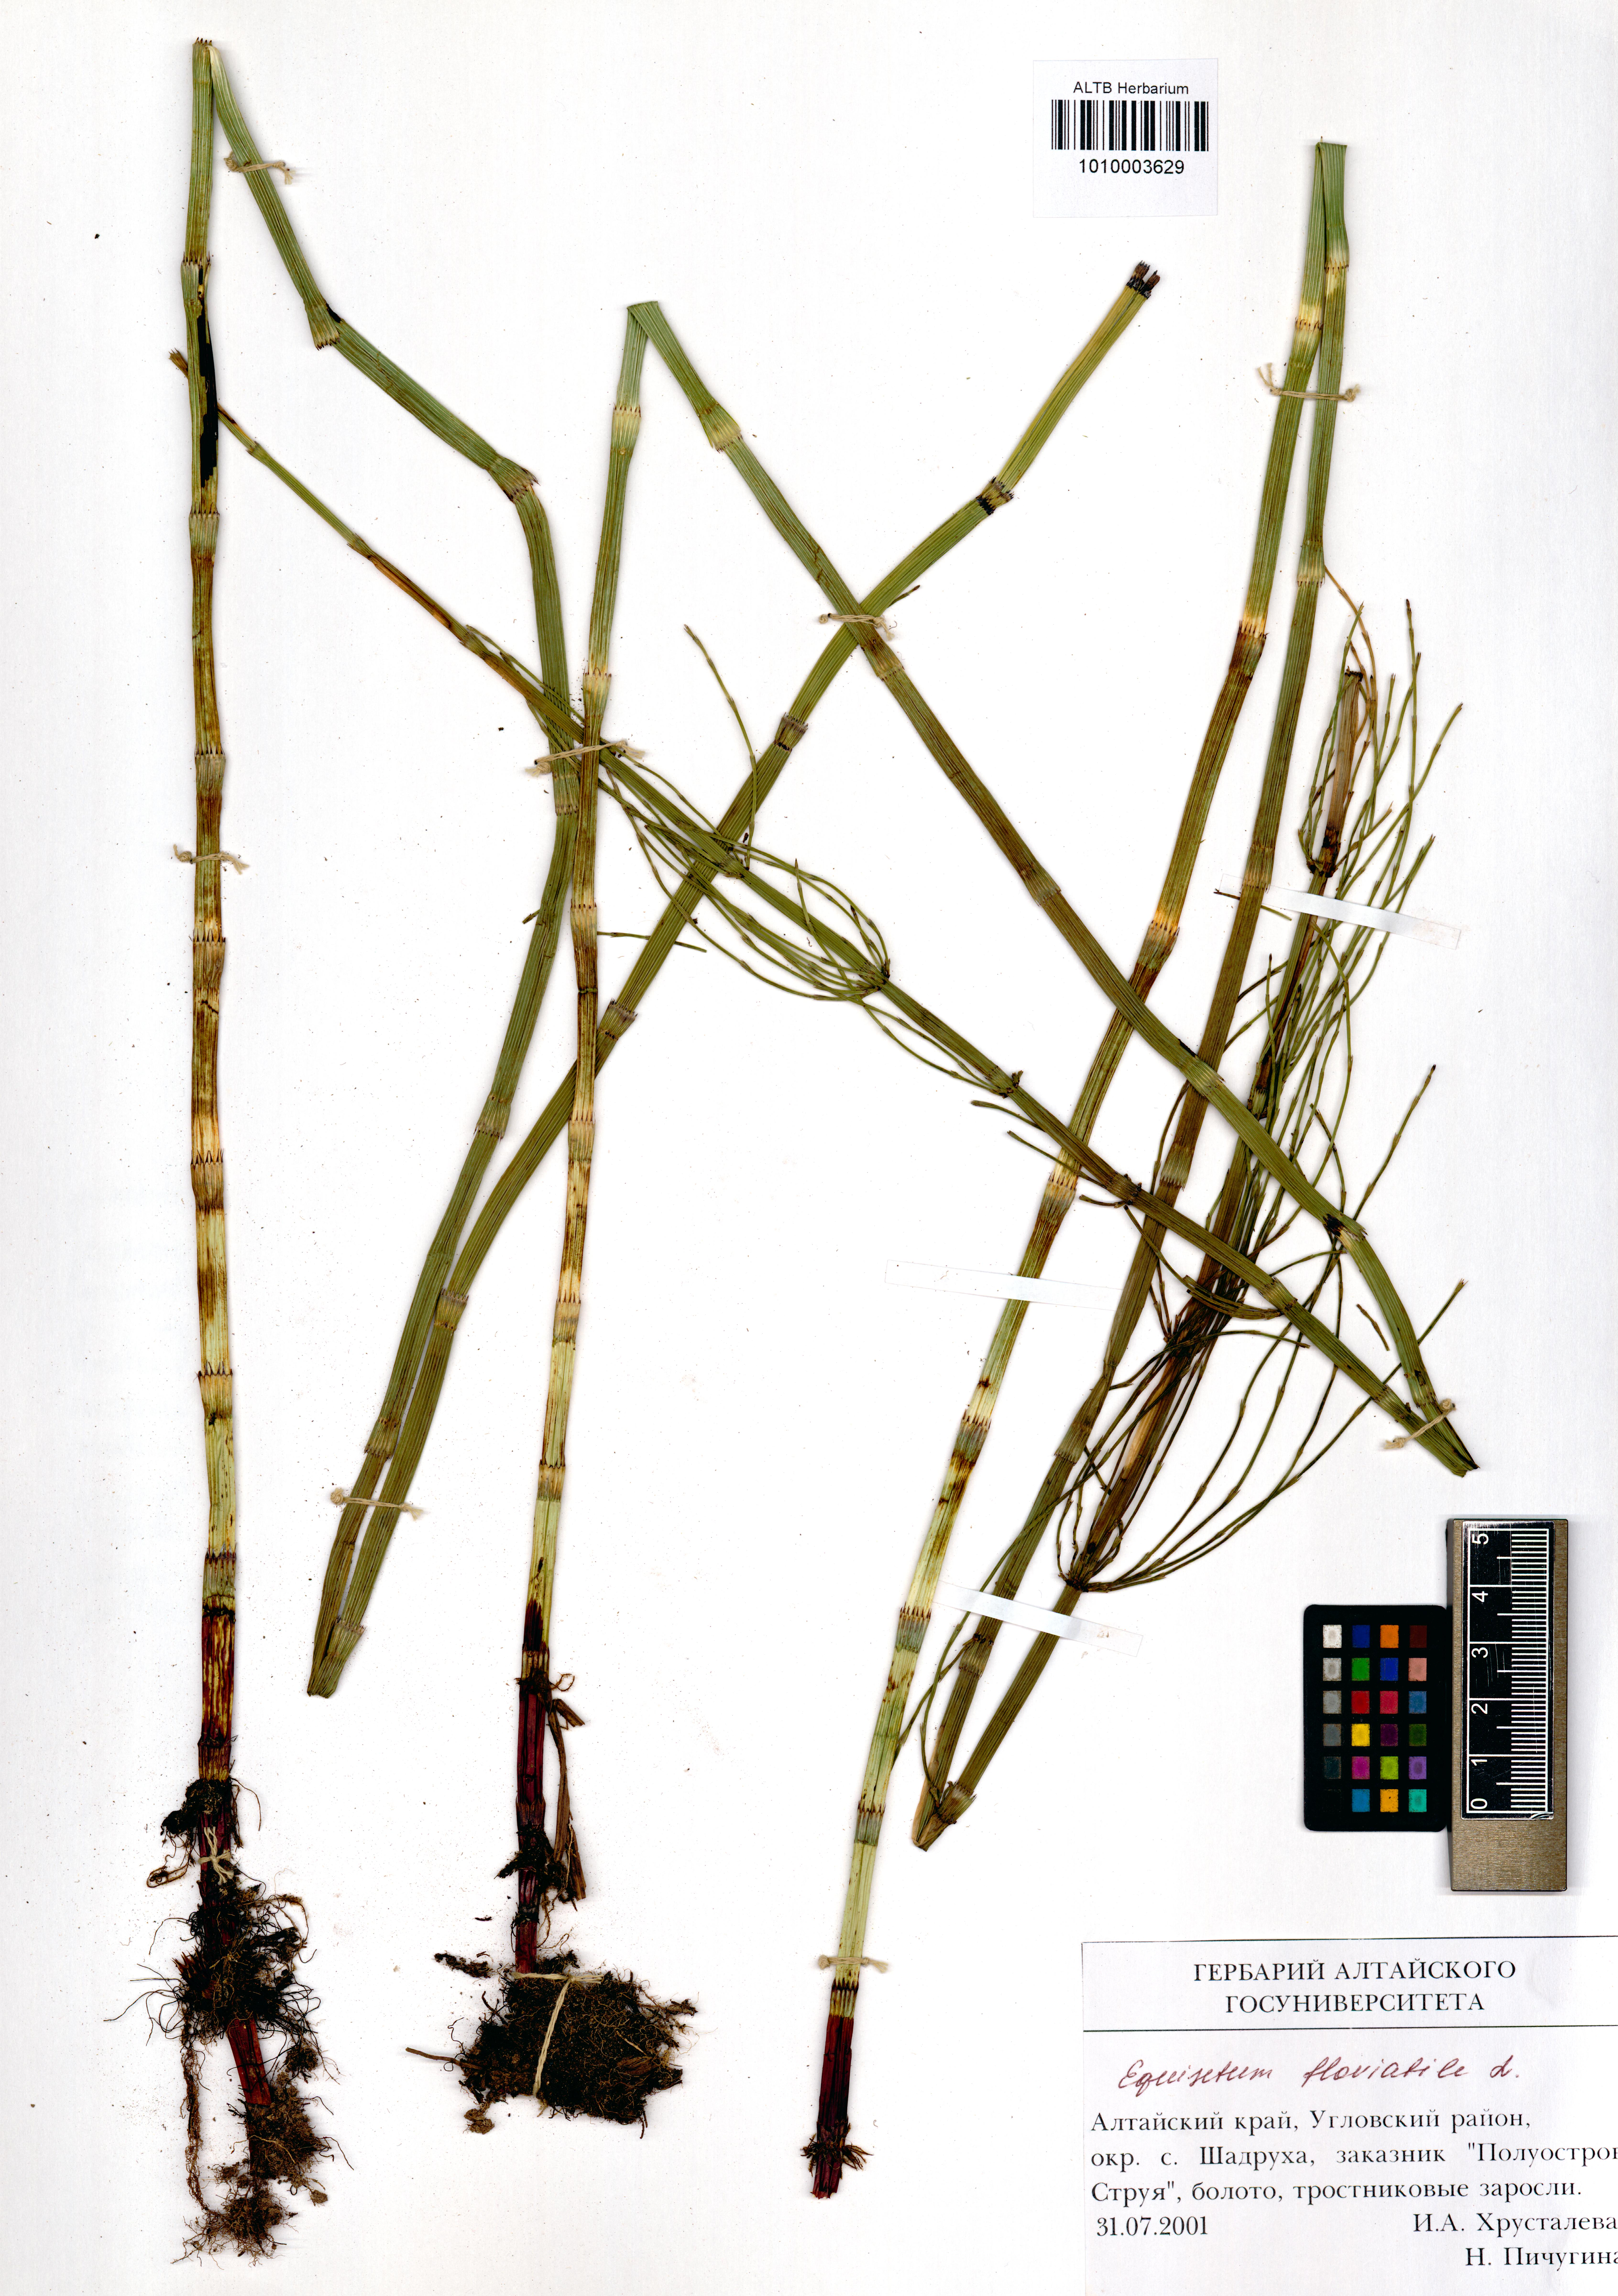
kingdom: Plantae
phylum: Tracheophyta
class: Polypodiopsida
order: Equisetales
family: Equisetaceae
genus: Equisetum
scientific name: Equisetum fluviatile
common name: Water horsetail
